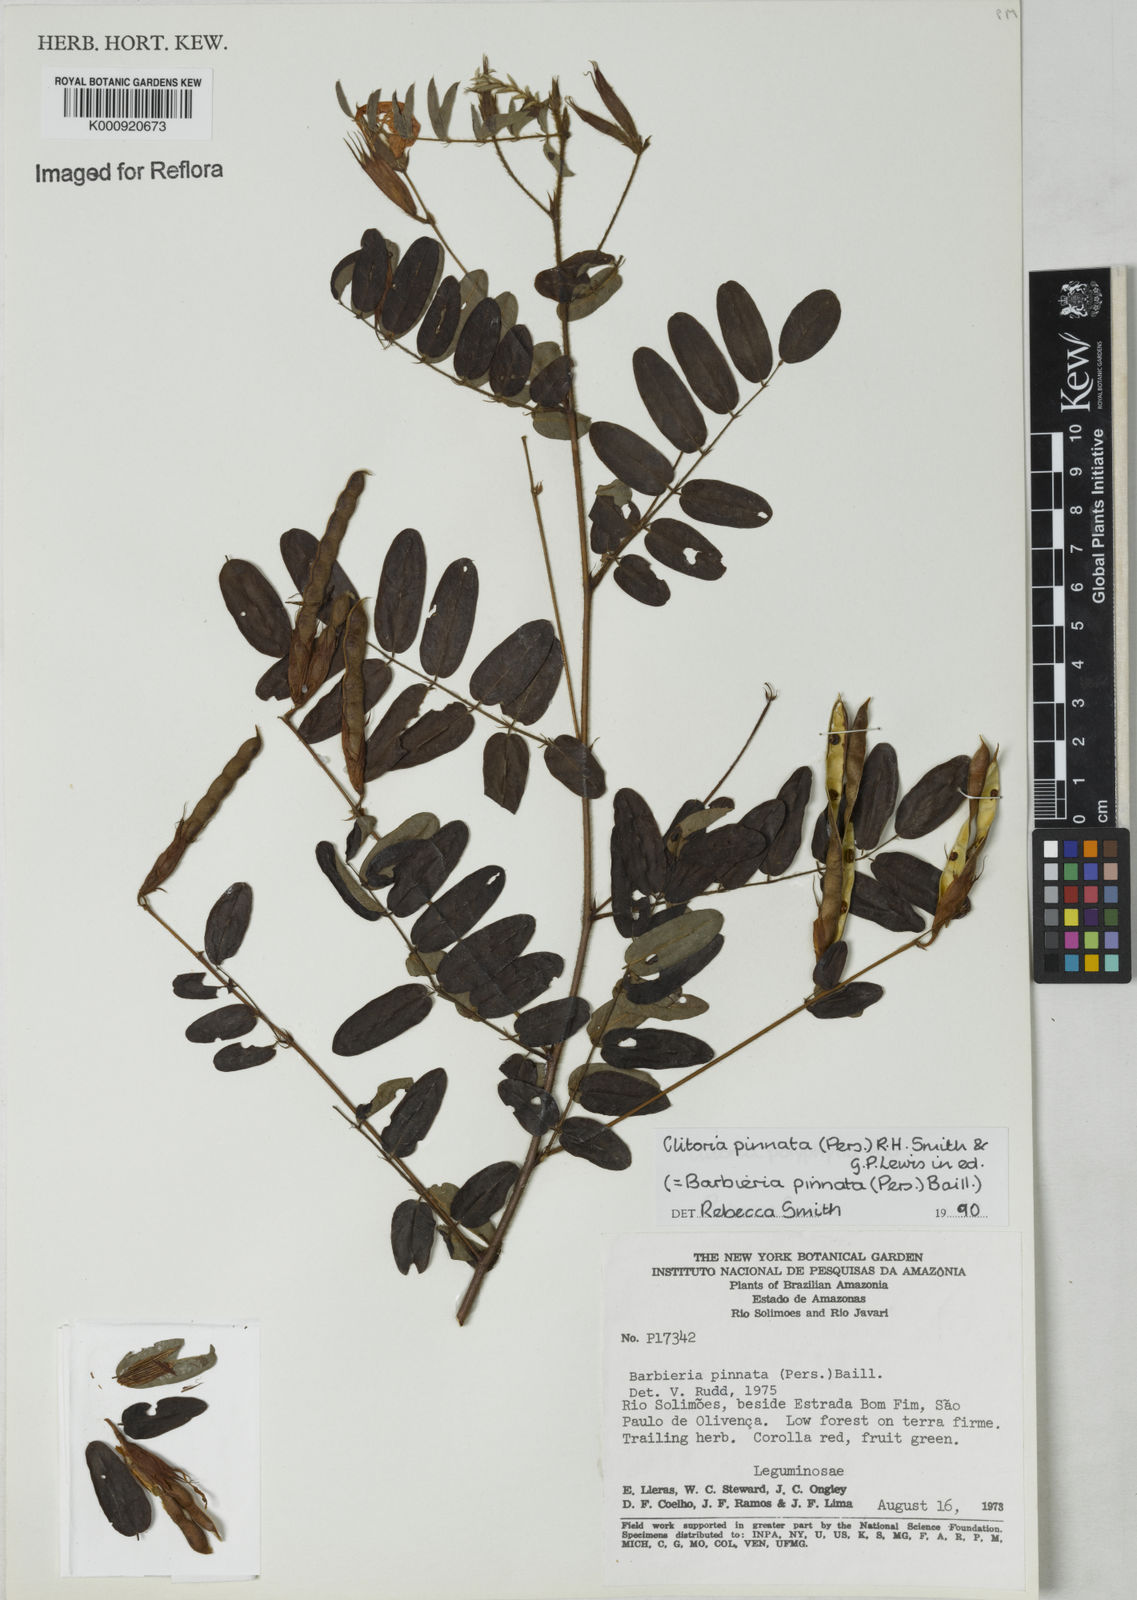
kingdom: Plantae
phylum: Tracheophyta
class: Magnoliopsida
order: Fabales
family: Fabaceae
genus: Barbieria
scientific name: Barbieria pinnata
